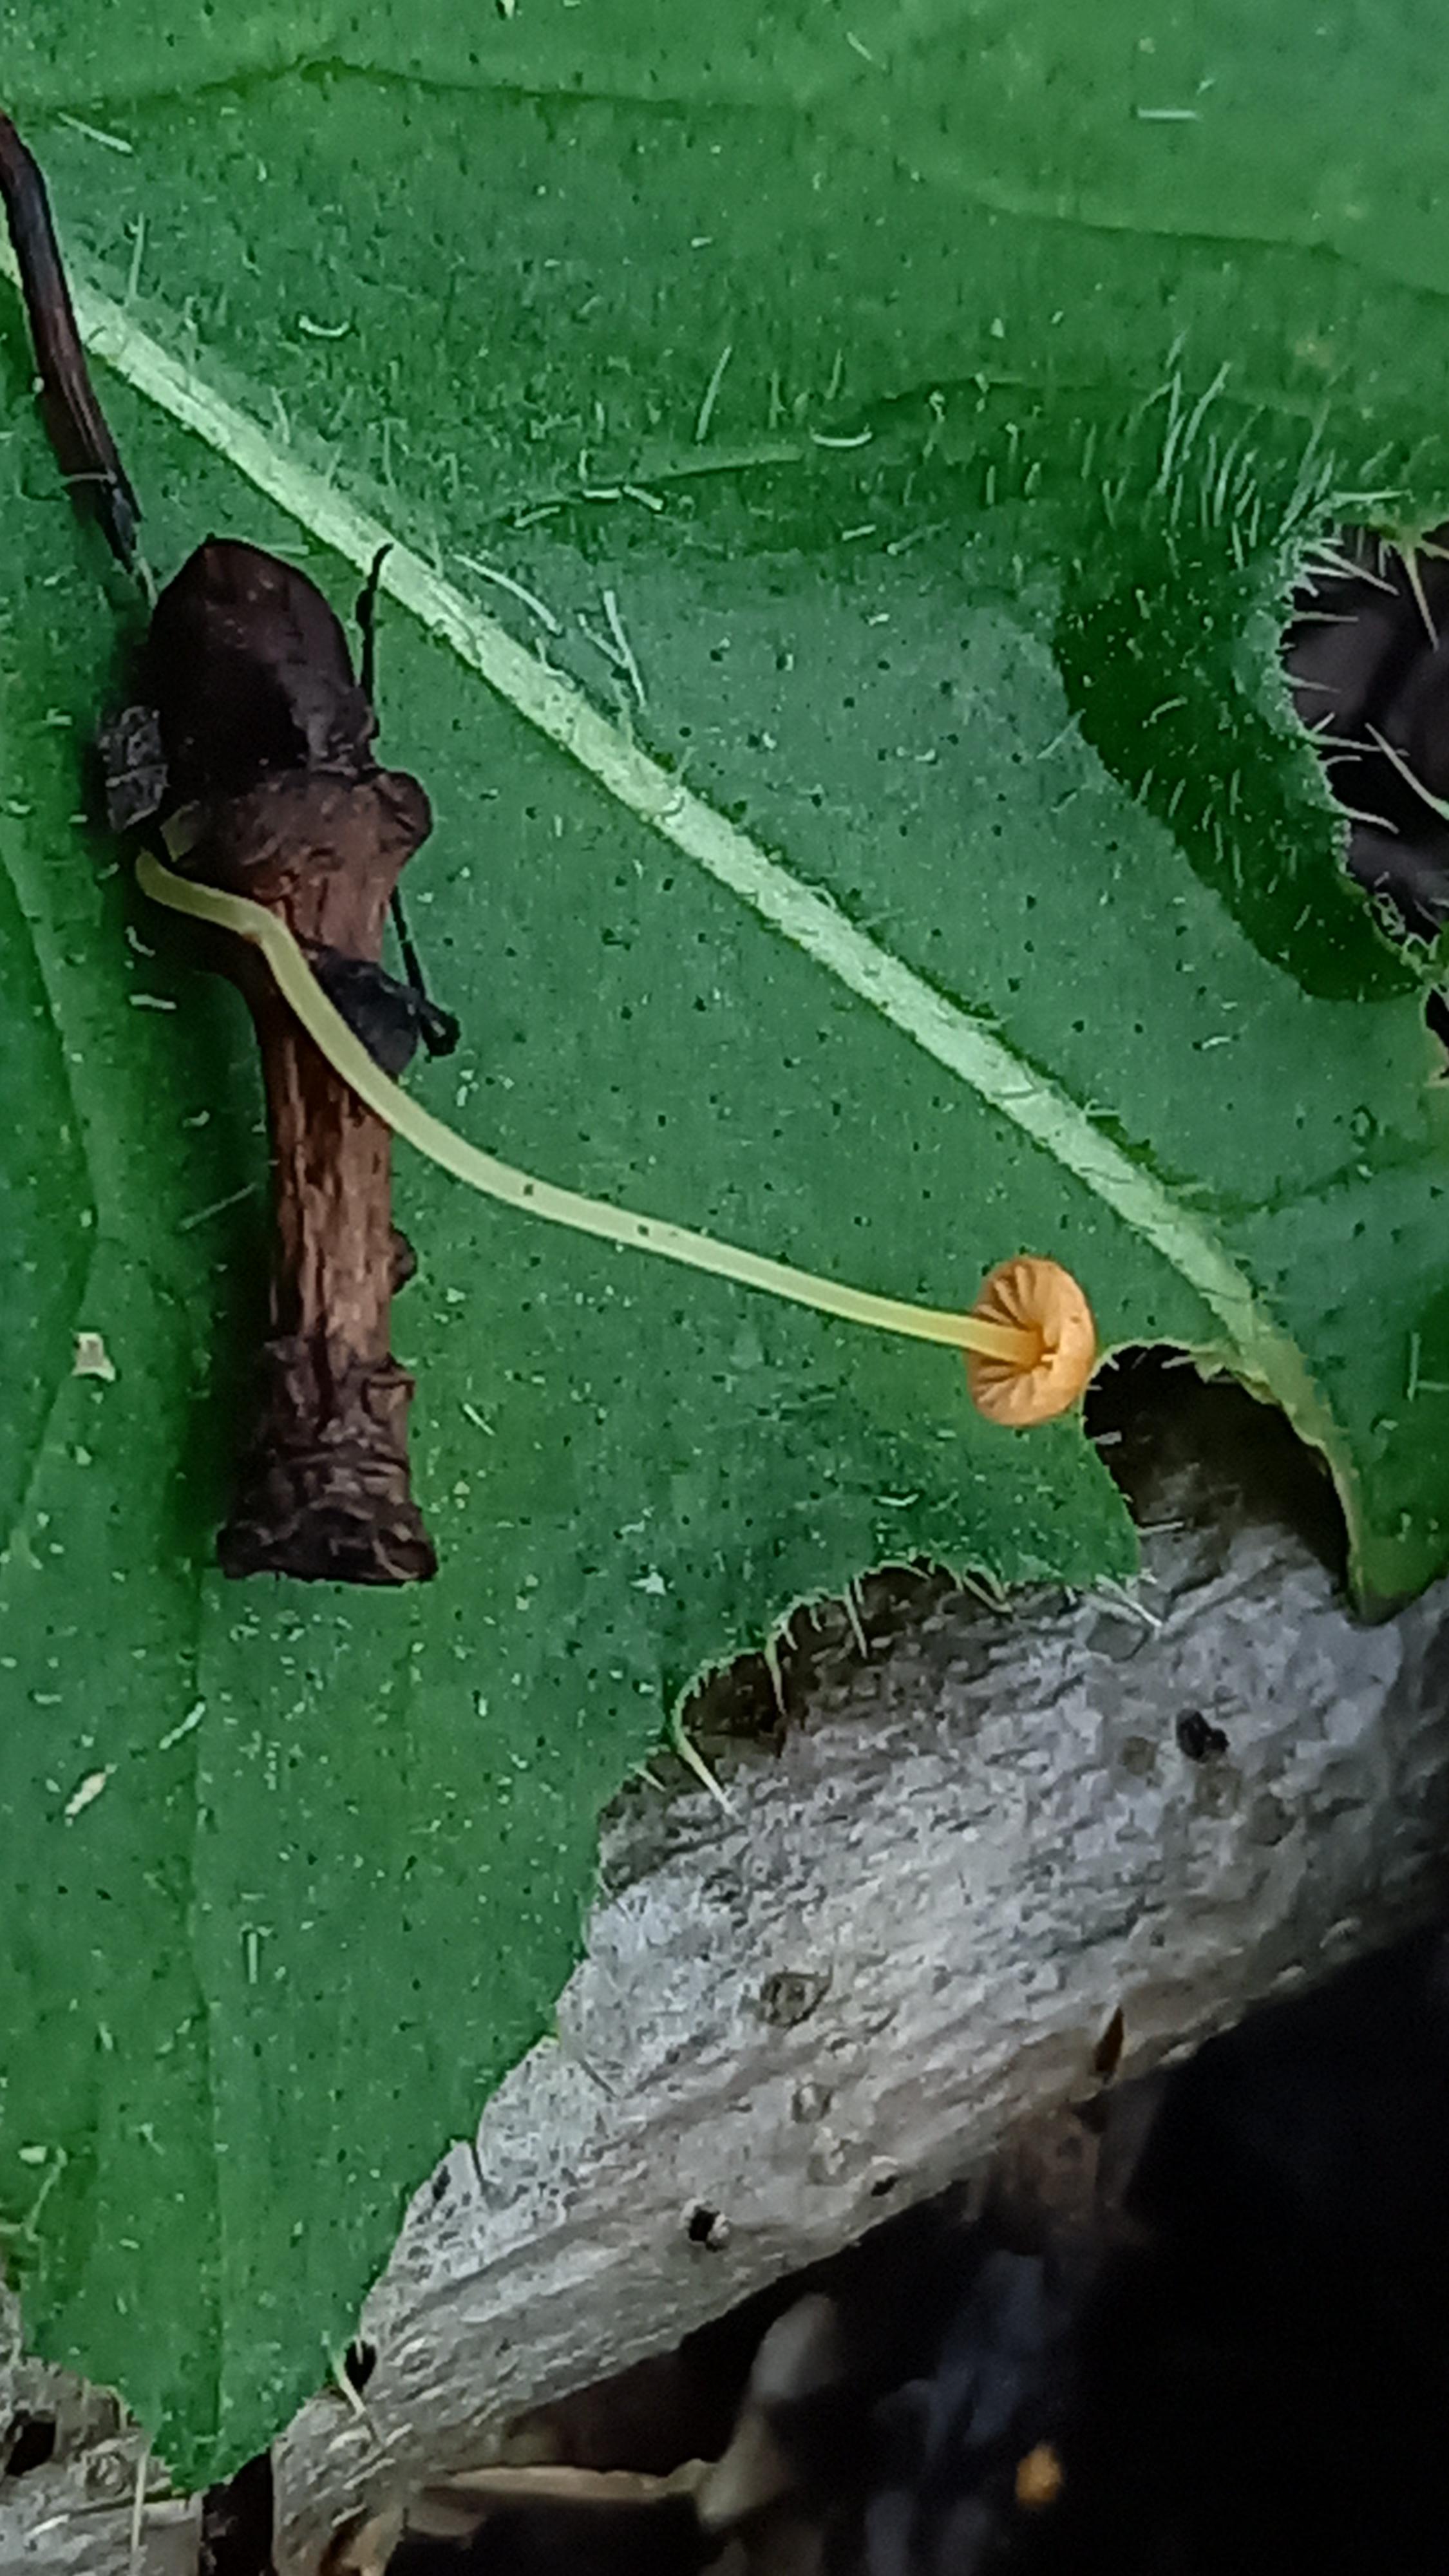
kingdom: Fungi
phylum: Basidiomycota
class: Agaricomycetes
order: Agaricales
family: Mycenaceae
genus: Mycena
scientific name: Mycena acicula
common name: orange huesvamp
